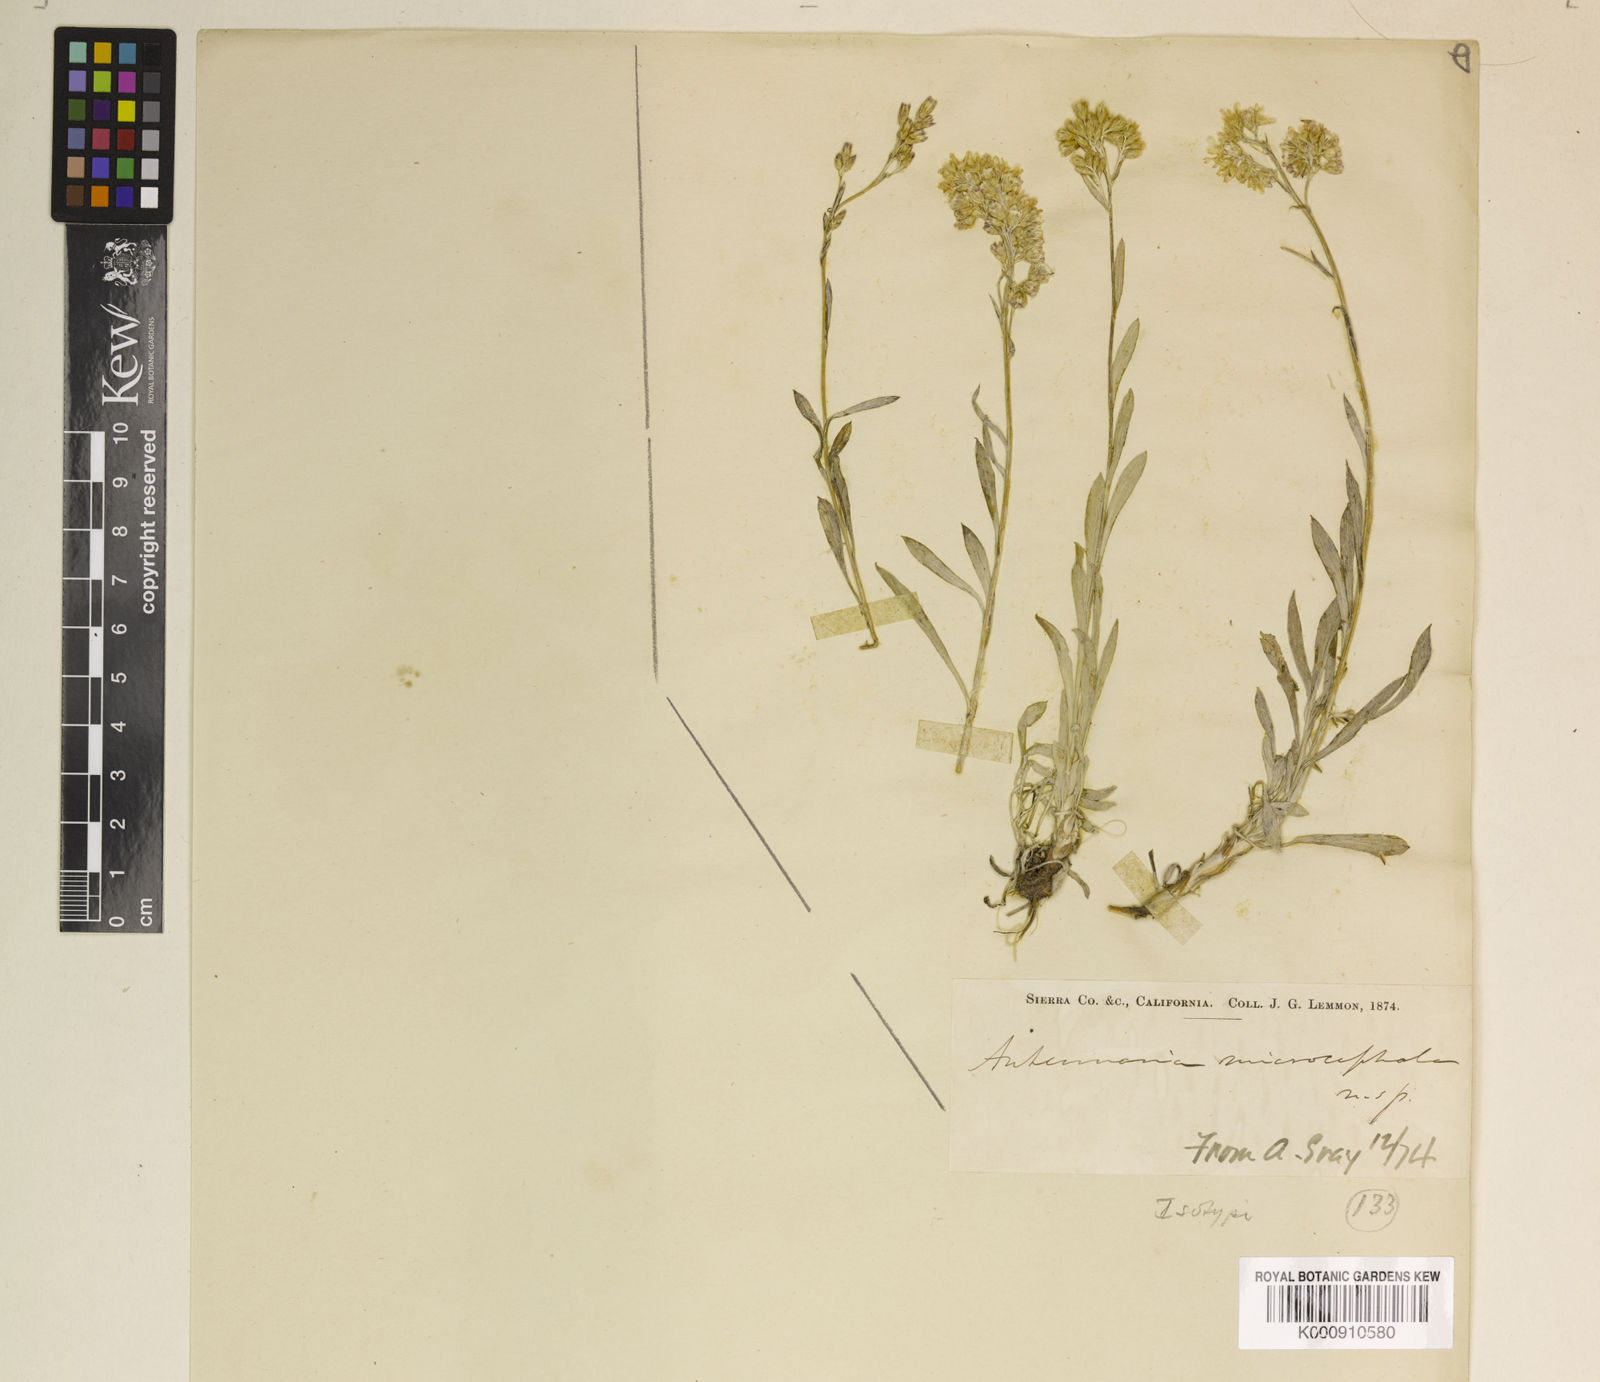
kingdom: Plantae
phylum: Tracheophyta
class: Magnoliopsida
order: Asterales
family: Asteraceae
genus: Antennaria
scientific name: Antennaria luzuloides
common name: Rush pussytoes
